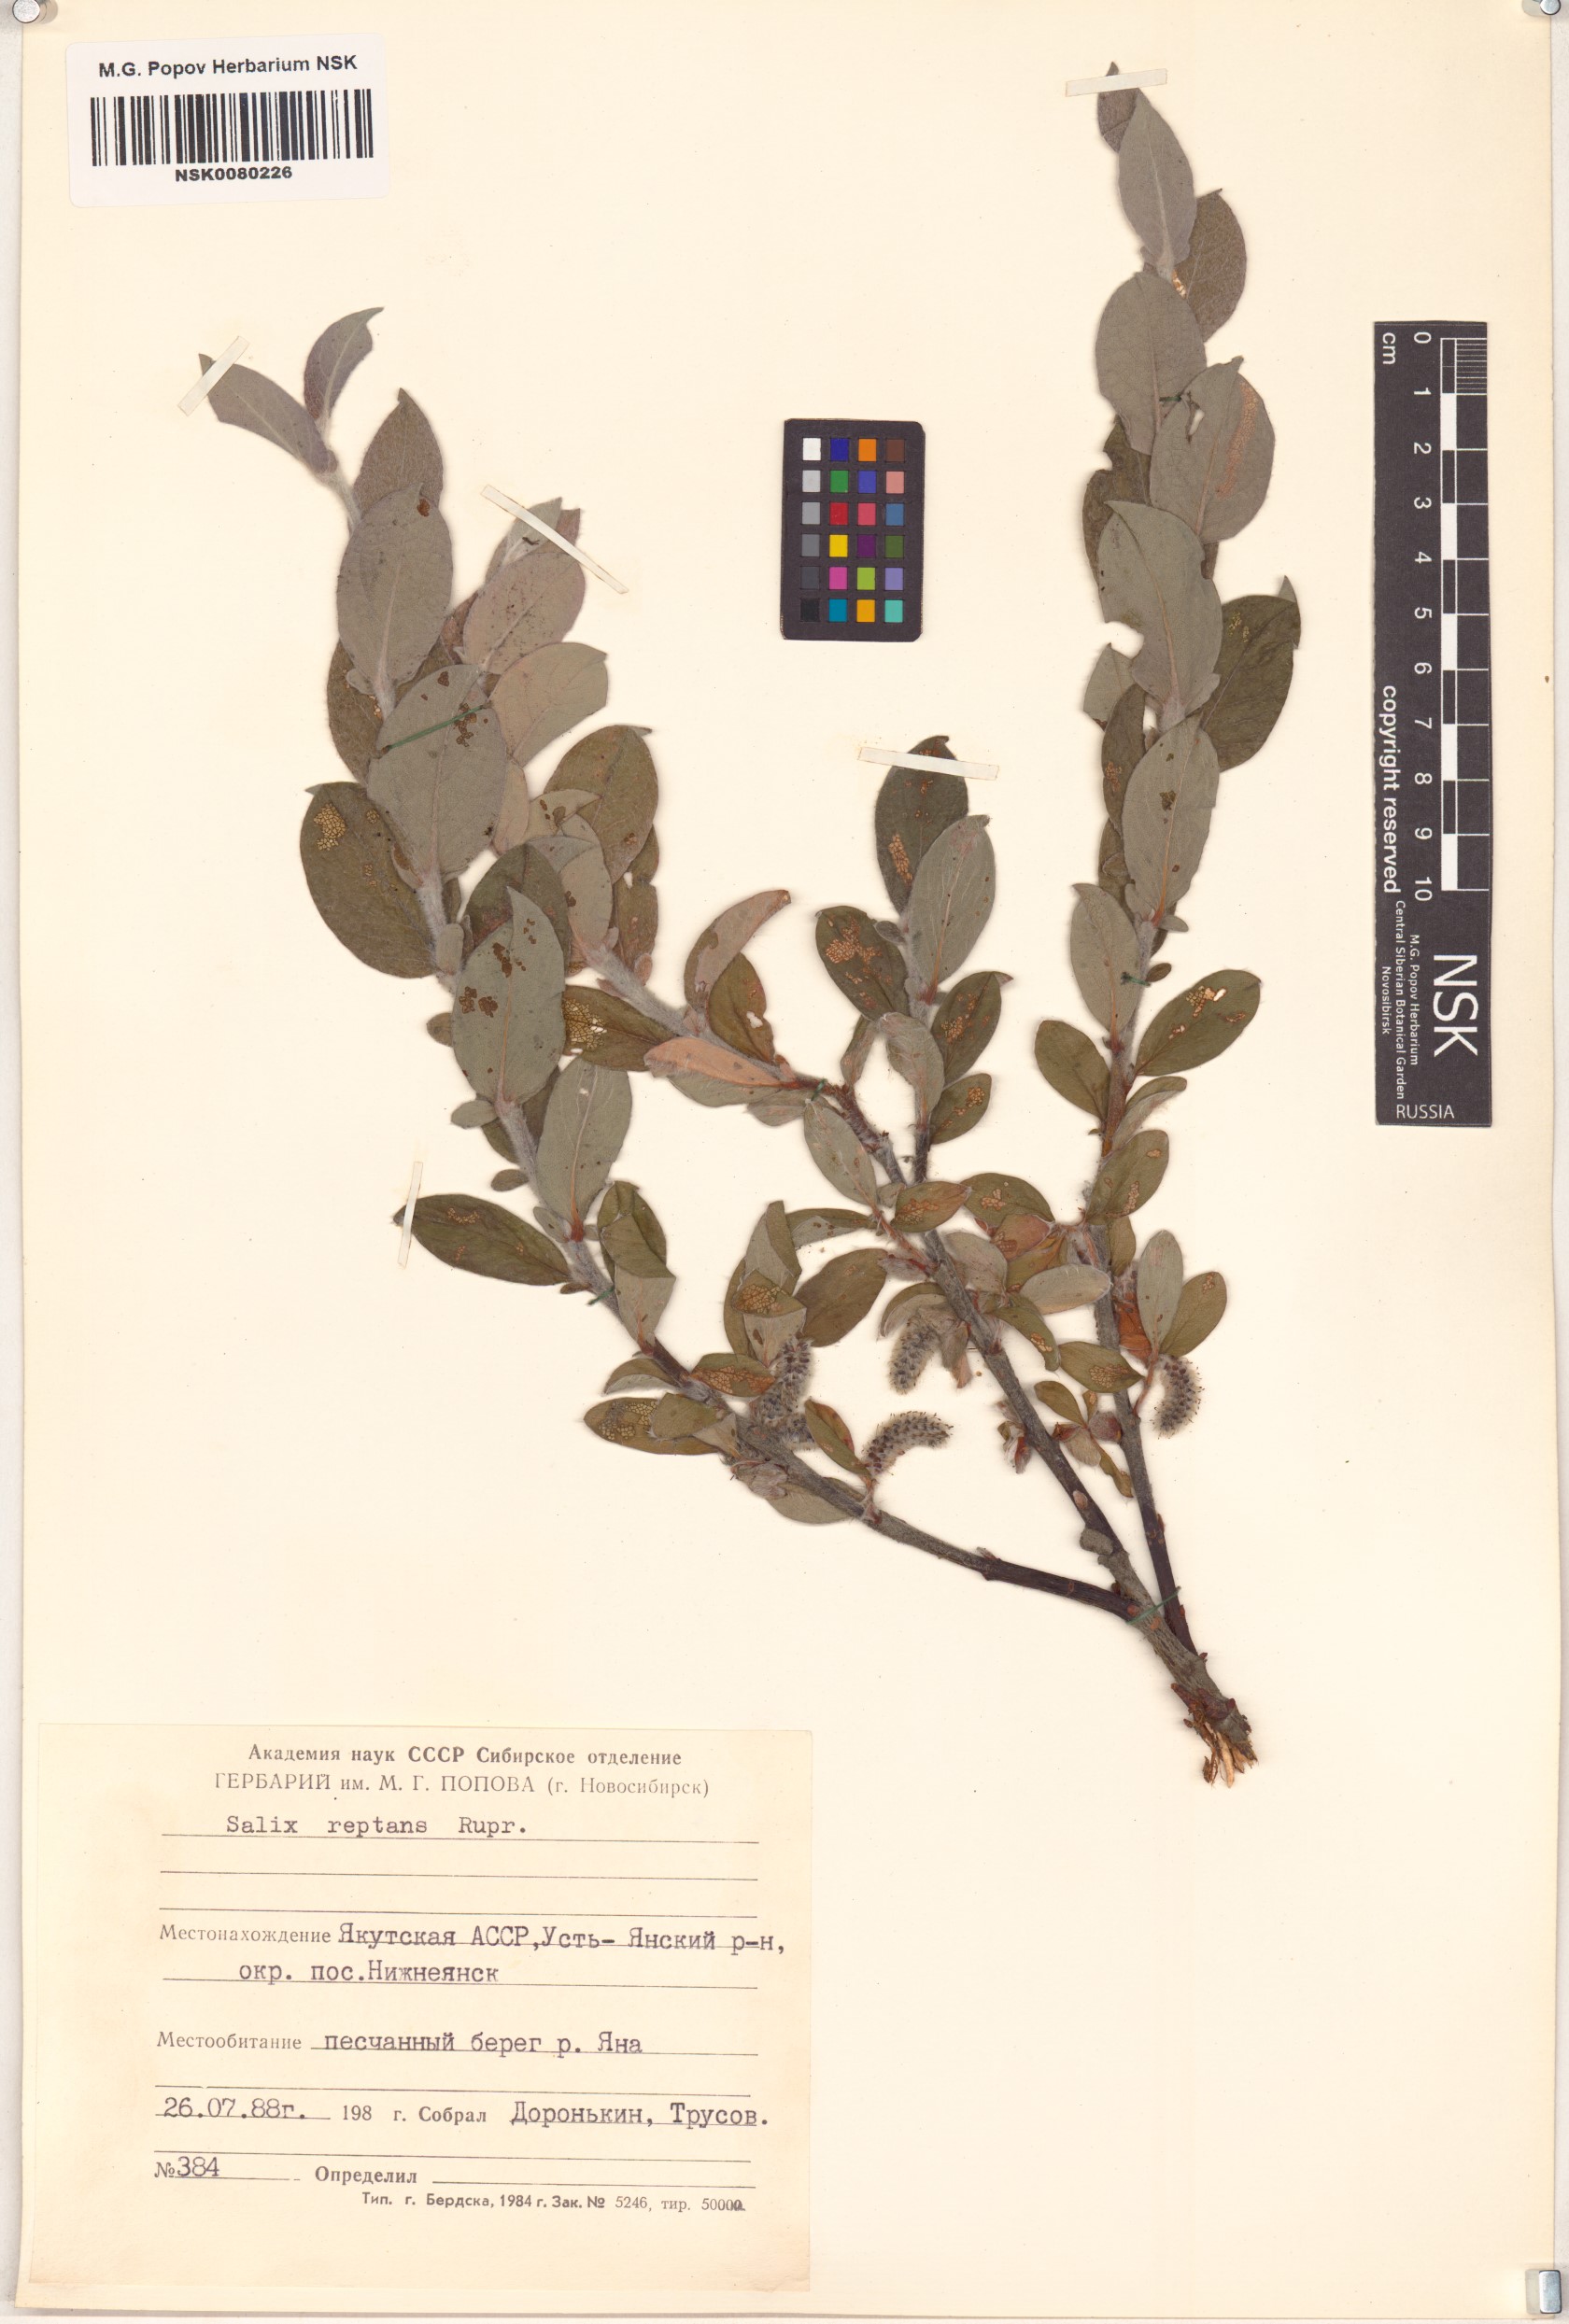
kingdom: Plantae
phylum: Tracheophyta
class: Magnoliopsida
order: Malpighiales
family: Salicaceae
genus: Salix
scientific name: Salix reptans
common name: Arctic creeping willow
